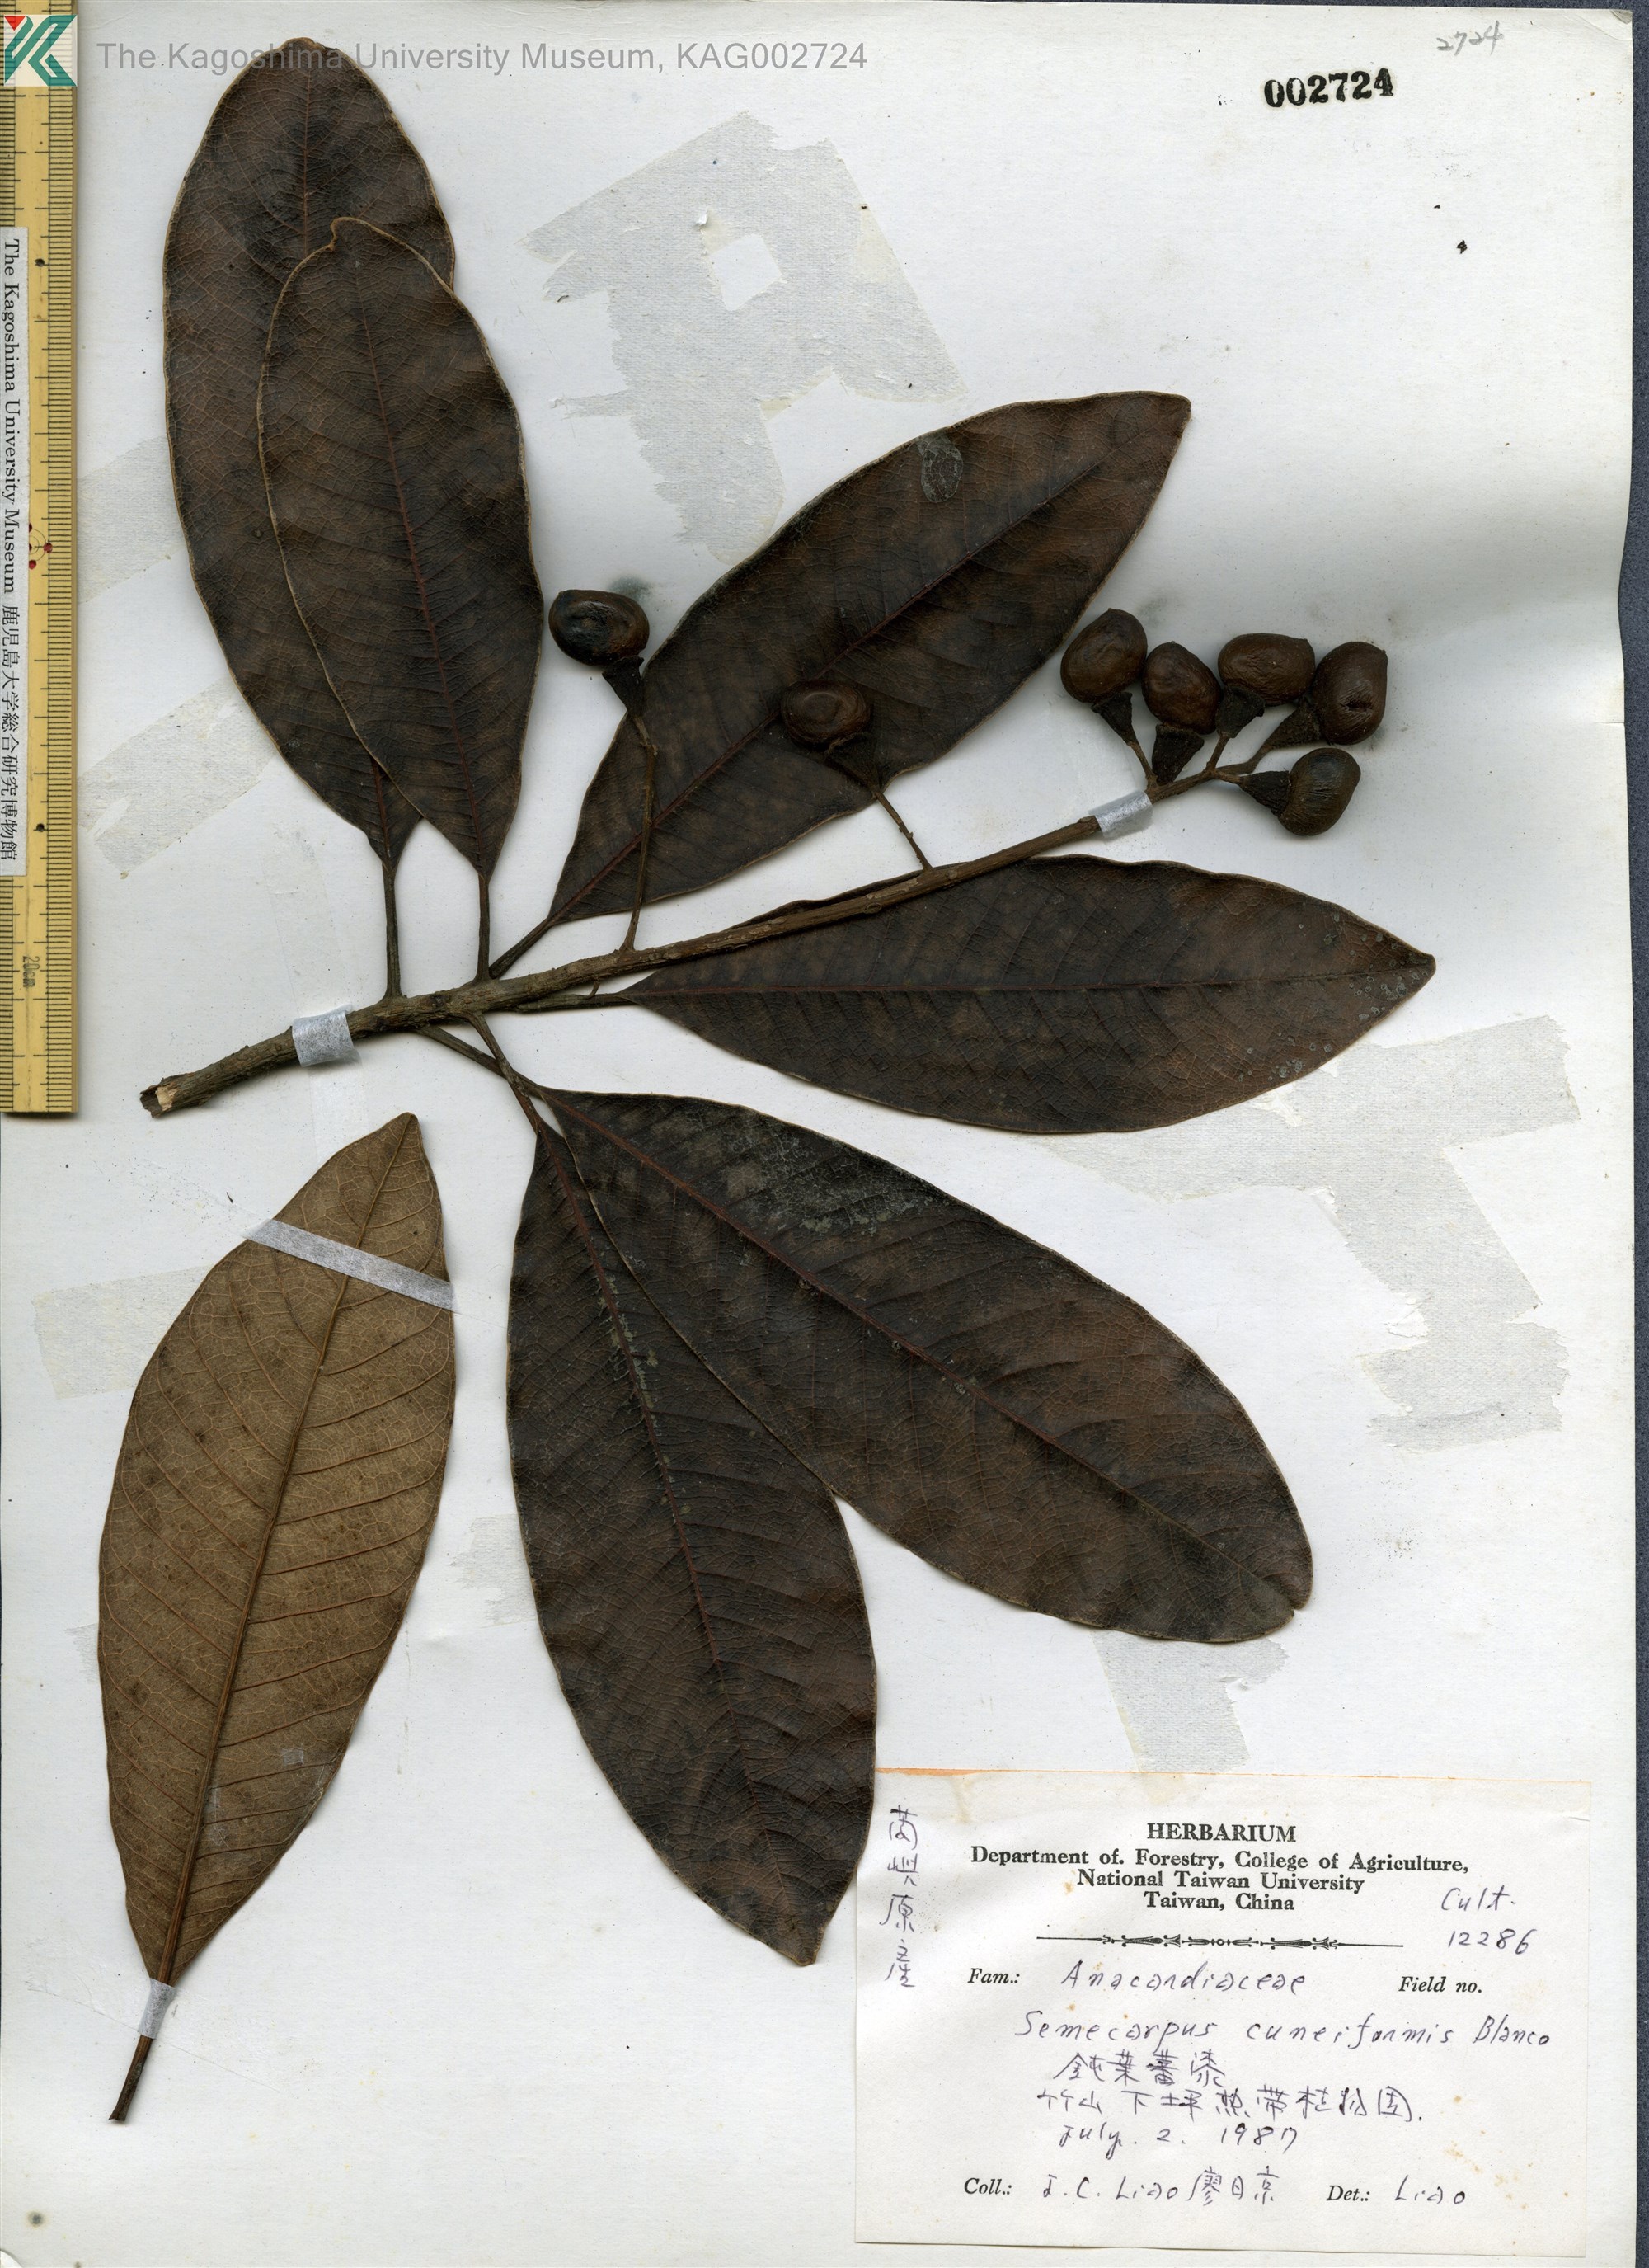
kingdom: Plantae
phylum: Tracheophyta
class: Magnoliopsida
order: Sapindales
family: Anacardiaceae
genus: Semecarpus
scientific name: Semecarpus cuneiformis
